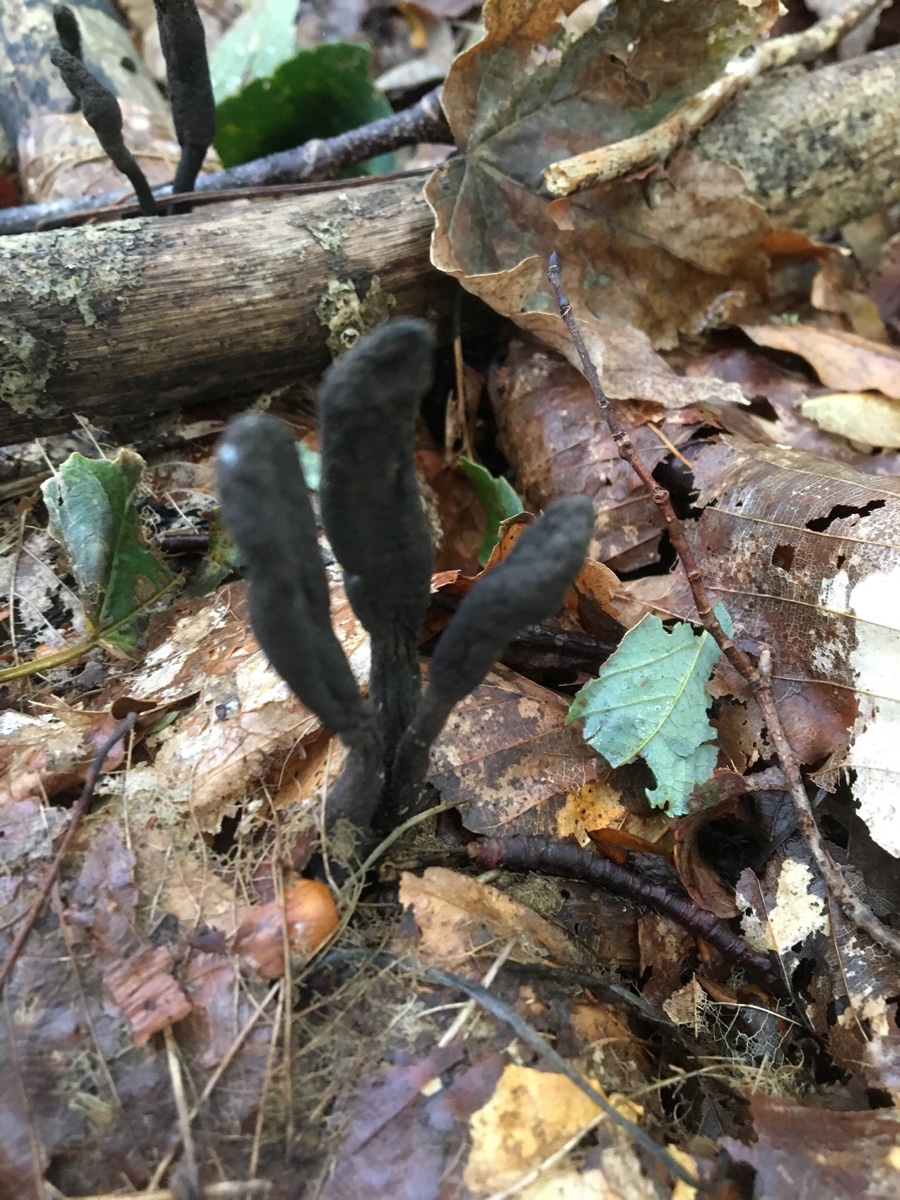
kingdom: Fungi
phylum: Ascomycota
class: Sordariomycetes
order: Xylariales
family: Xylariaceae
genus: Xylaria
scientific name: Xylaria longipes
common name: slank stødsvamp
